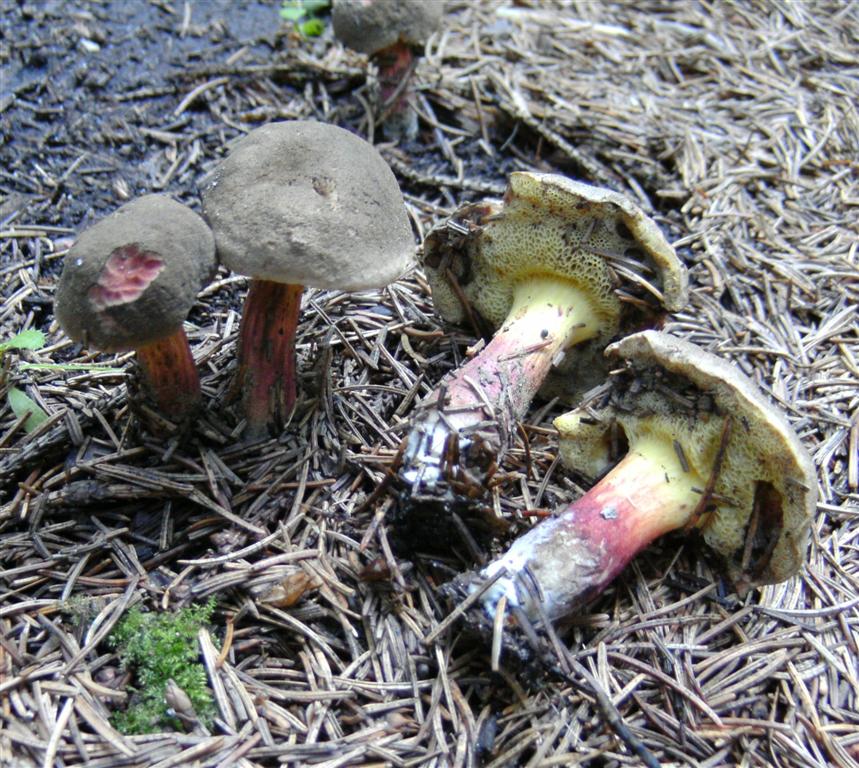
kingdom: Fungi
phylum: Basidiomycota
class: Agaricomycetes
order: Boletales
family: Boletaceae
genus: Xerocomellus
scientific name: Xerocomellus chrysenteron
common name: rødsprukken rørhat
